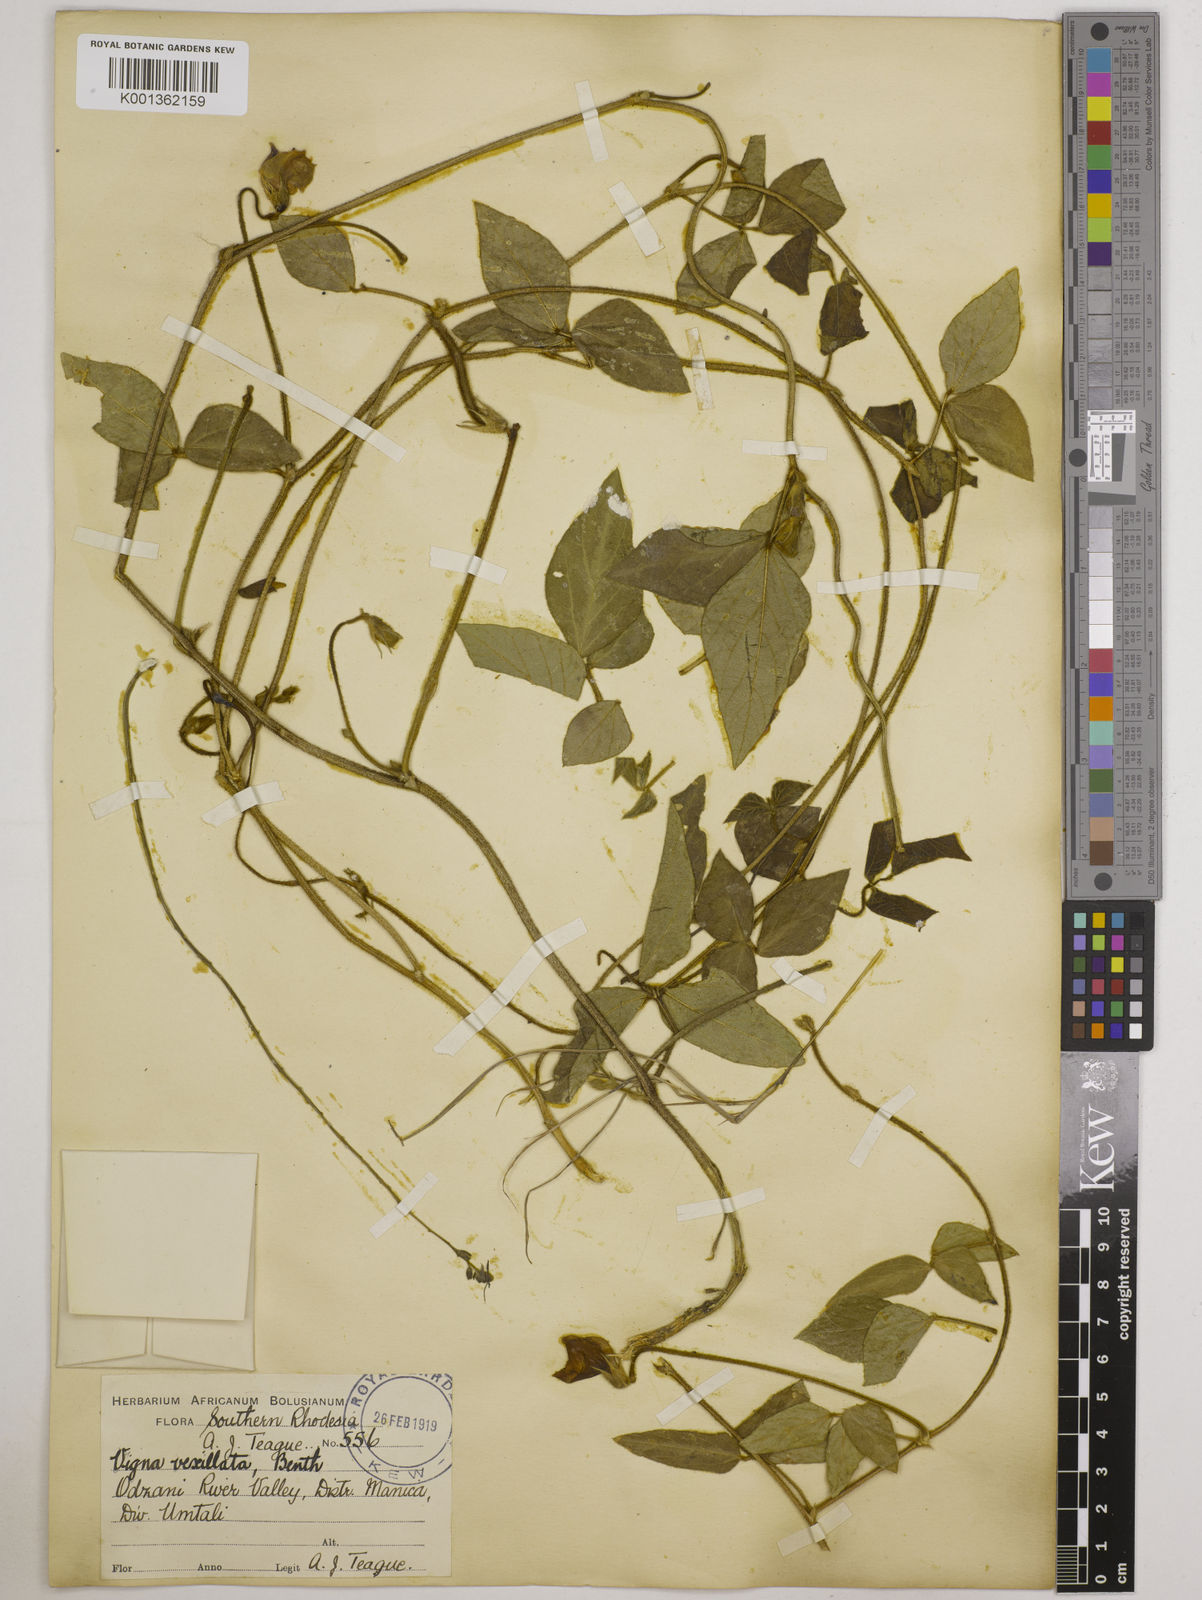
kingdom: Plantae
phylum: Tracheophyta
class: Magnoliopsida
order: Fabales
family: Fabaceae
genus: Vigna
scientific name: Vigna vexillata
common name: Zombi pea
